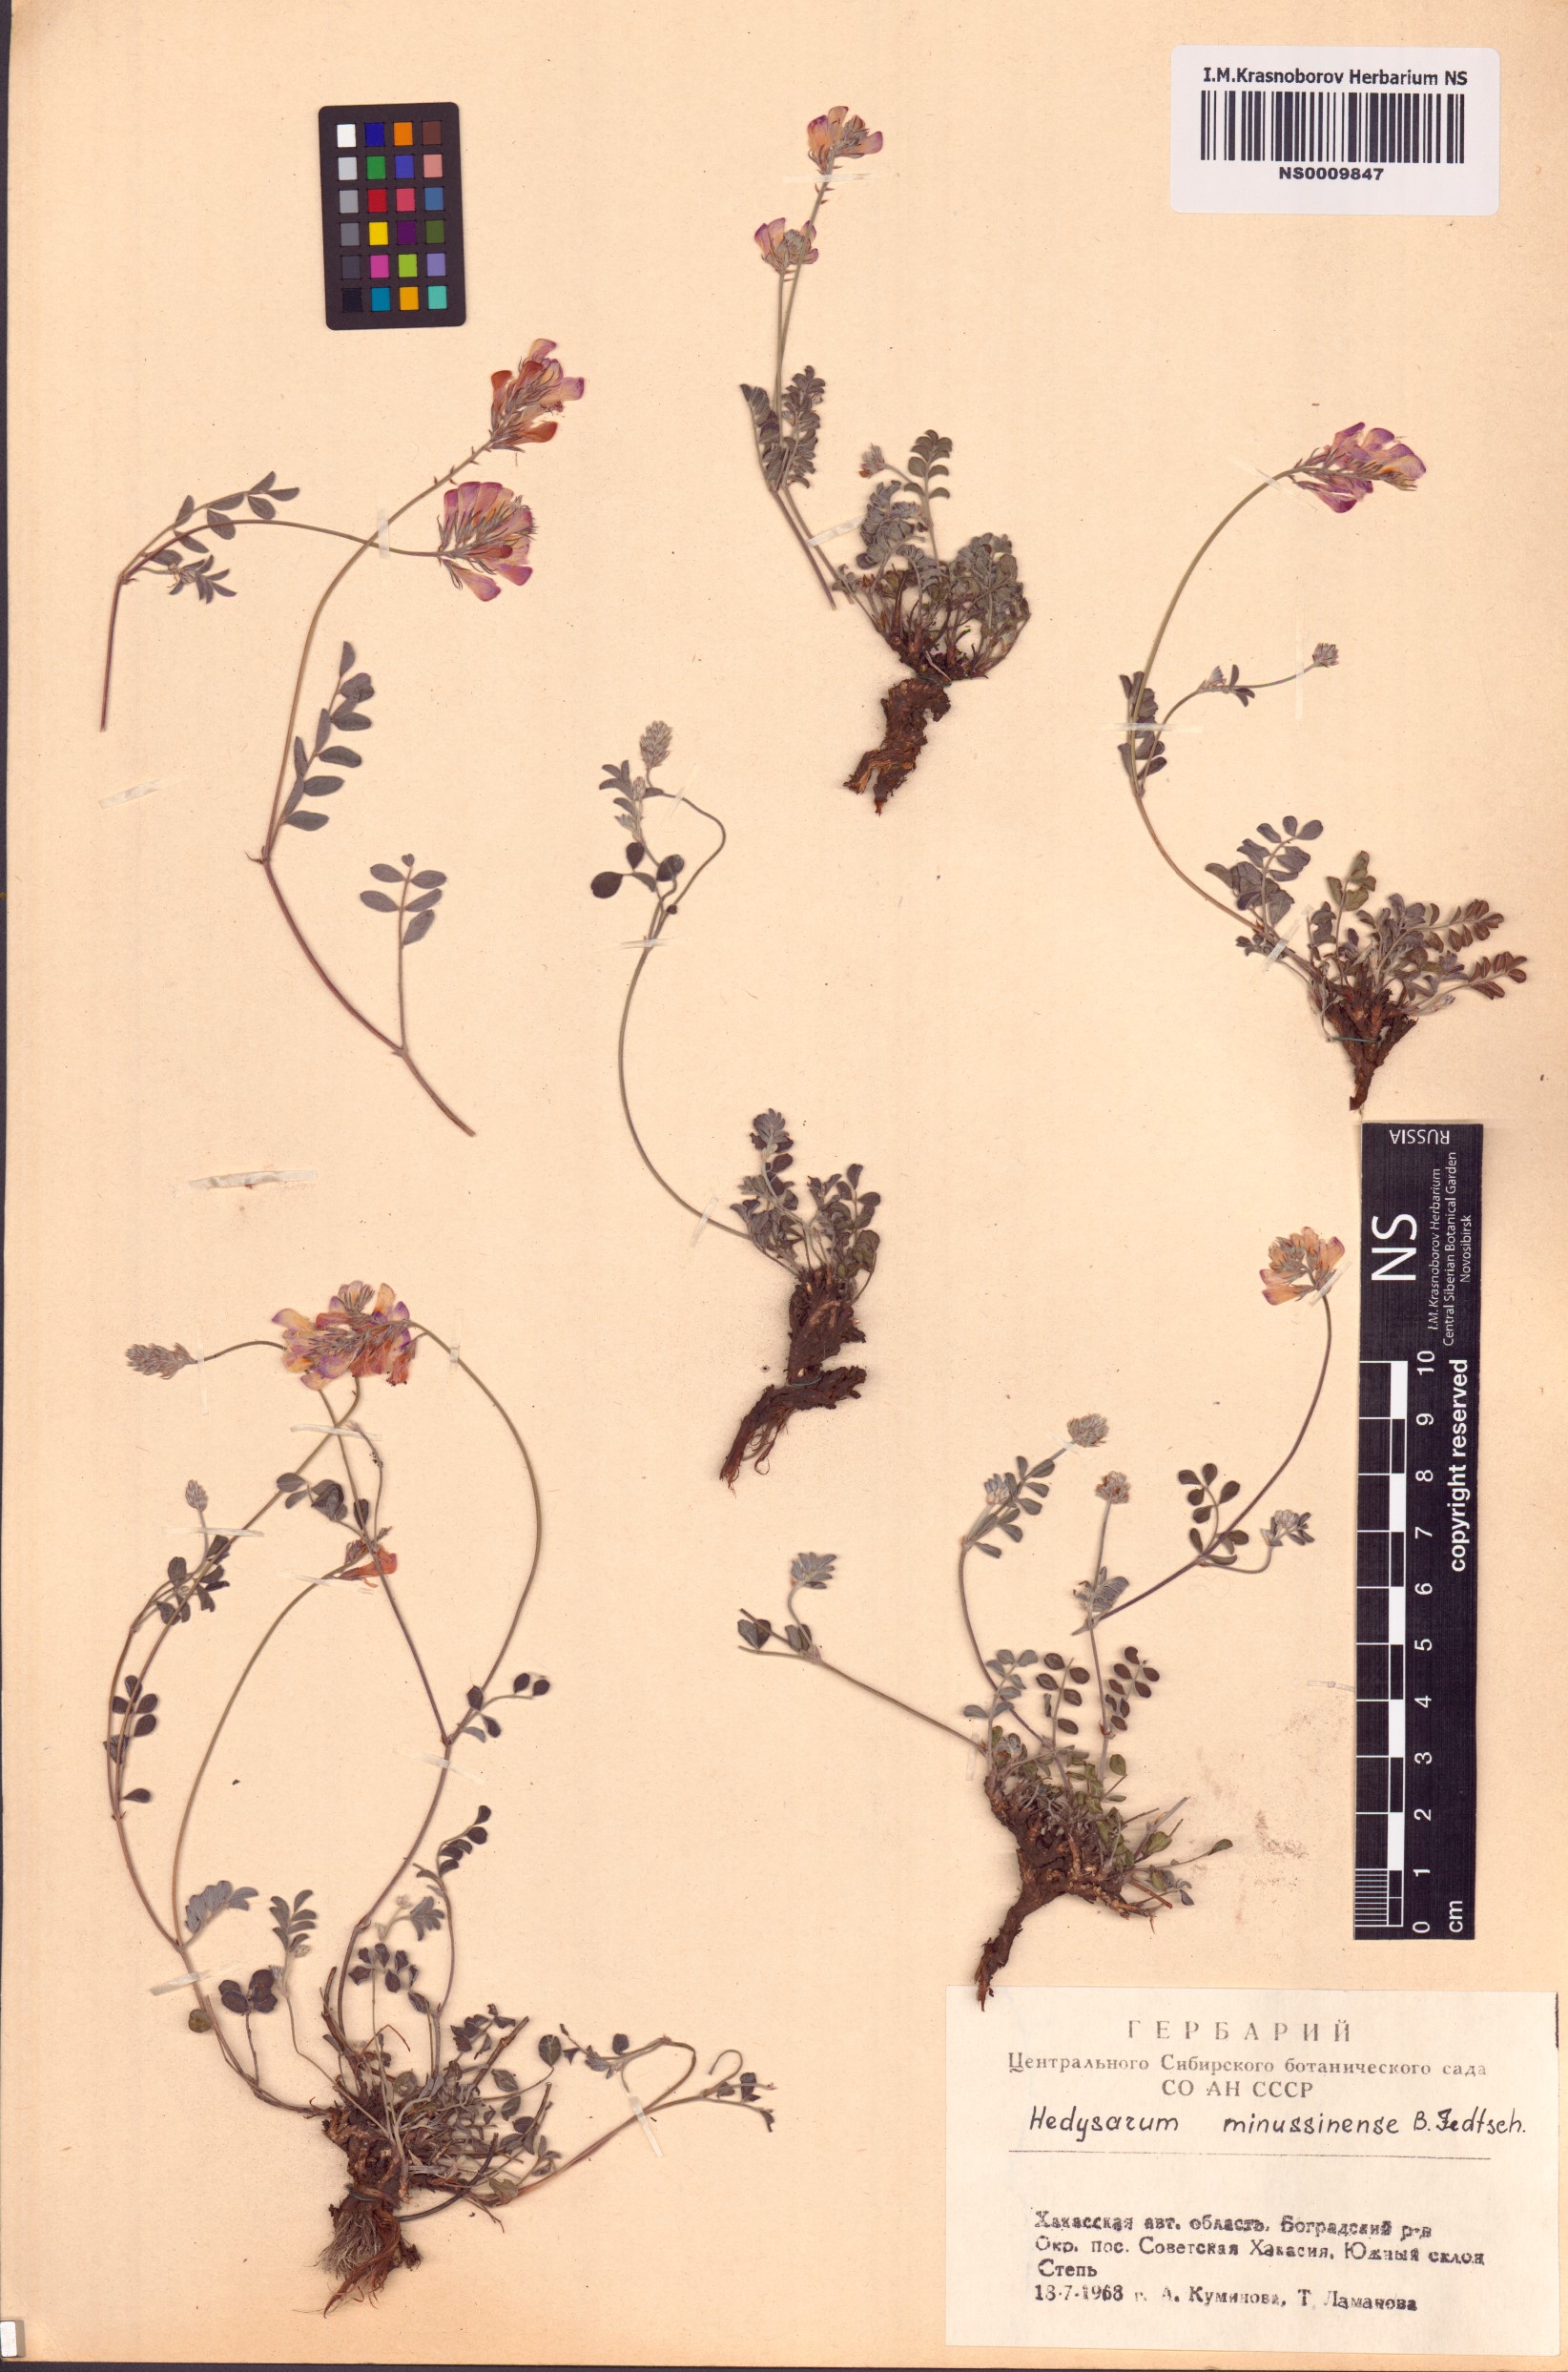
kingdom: Plantae
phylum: Tracheophyta
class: Magnoliopsida
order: Fabales
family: Fabaceae
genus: Hedysarum
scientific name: Hedysarum minussinense
